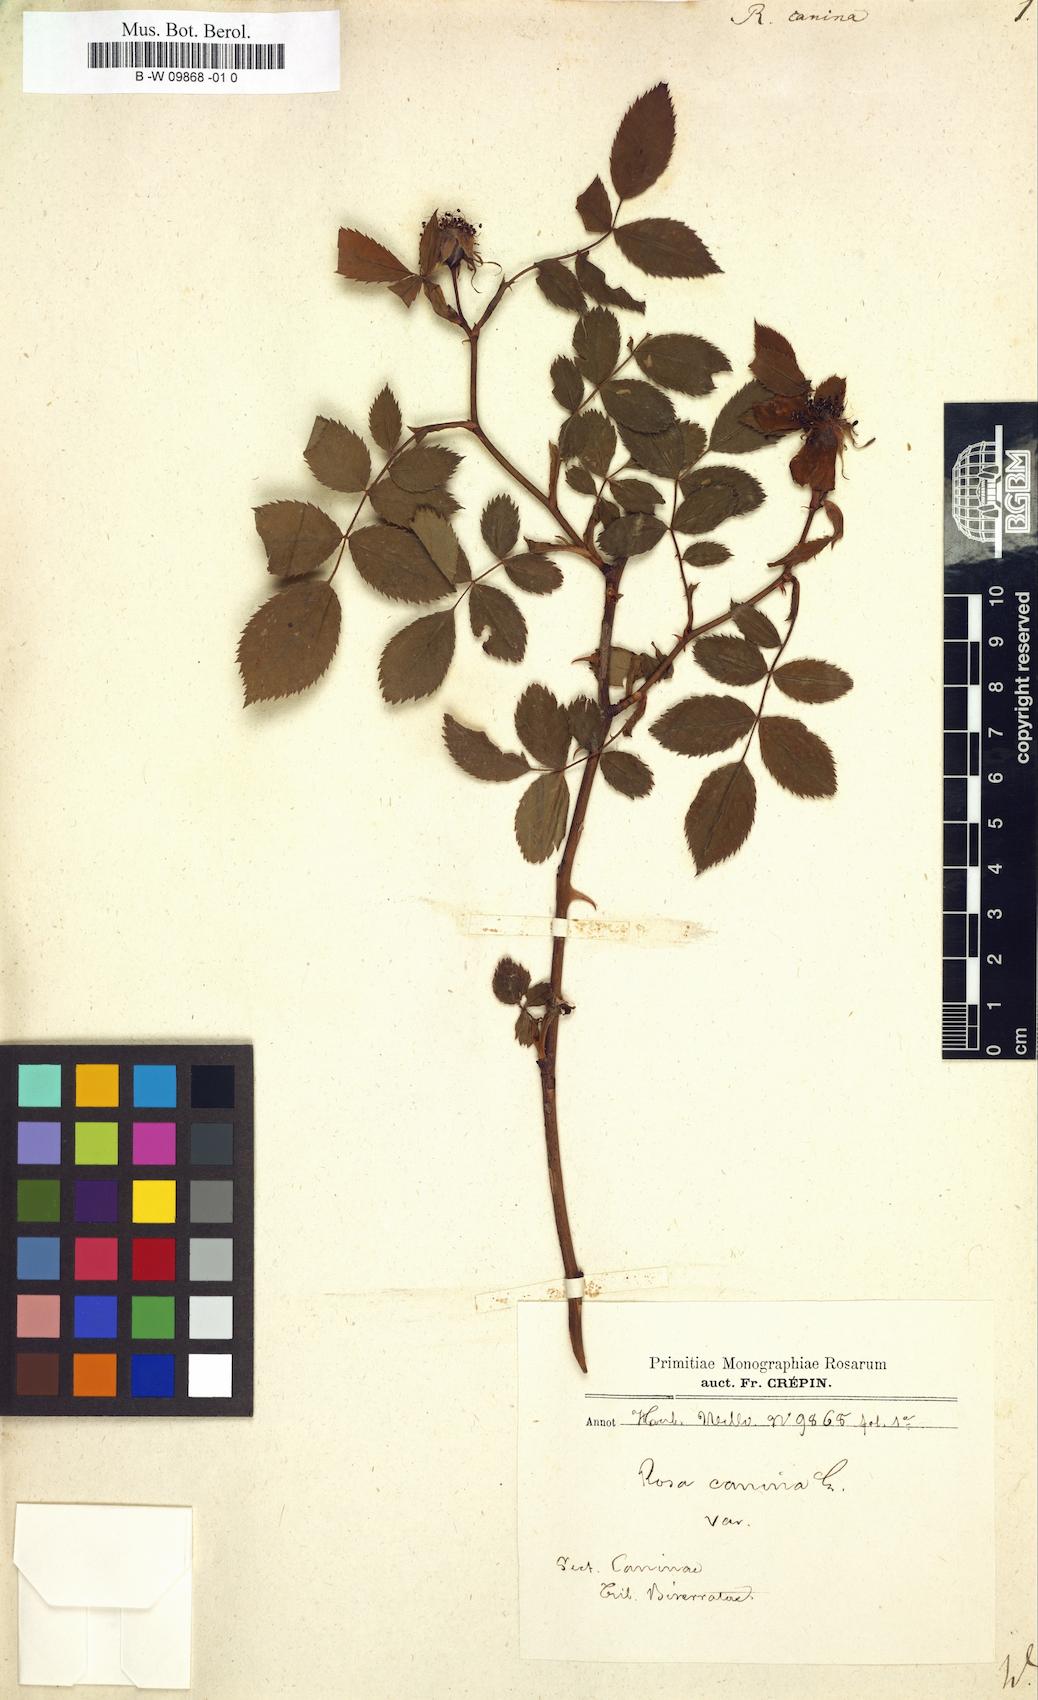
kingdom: Plantae
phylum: Tracheophyta
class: Magnoliopsida
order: Rosales
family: Rosaceae
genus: Rosa
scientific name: Rosa canina
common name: Dog rose
